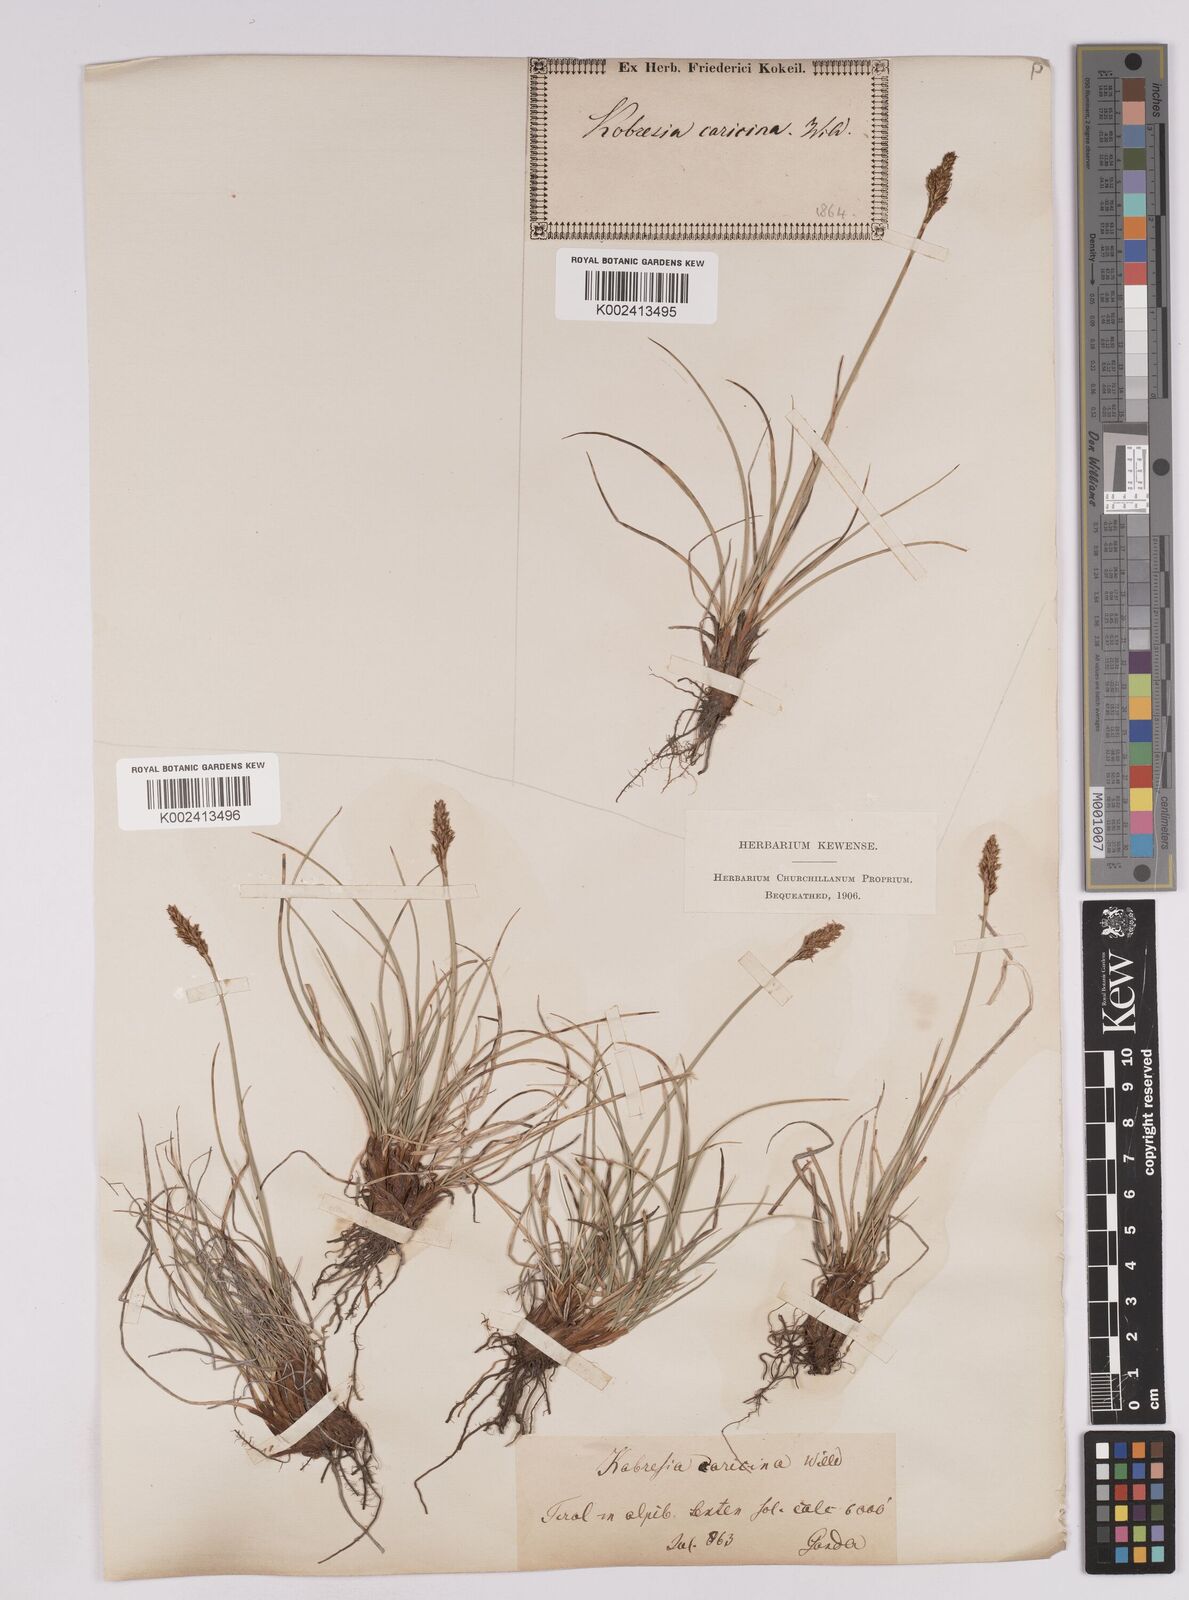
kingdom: Plantae
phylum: Tracheophyta
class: Liliopsida
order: Poales
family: Cyperaceae
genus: Carex
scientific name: Carex simpliciuscula
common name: Simple bog sedge
